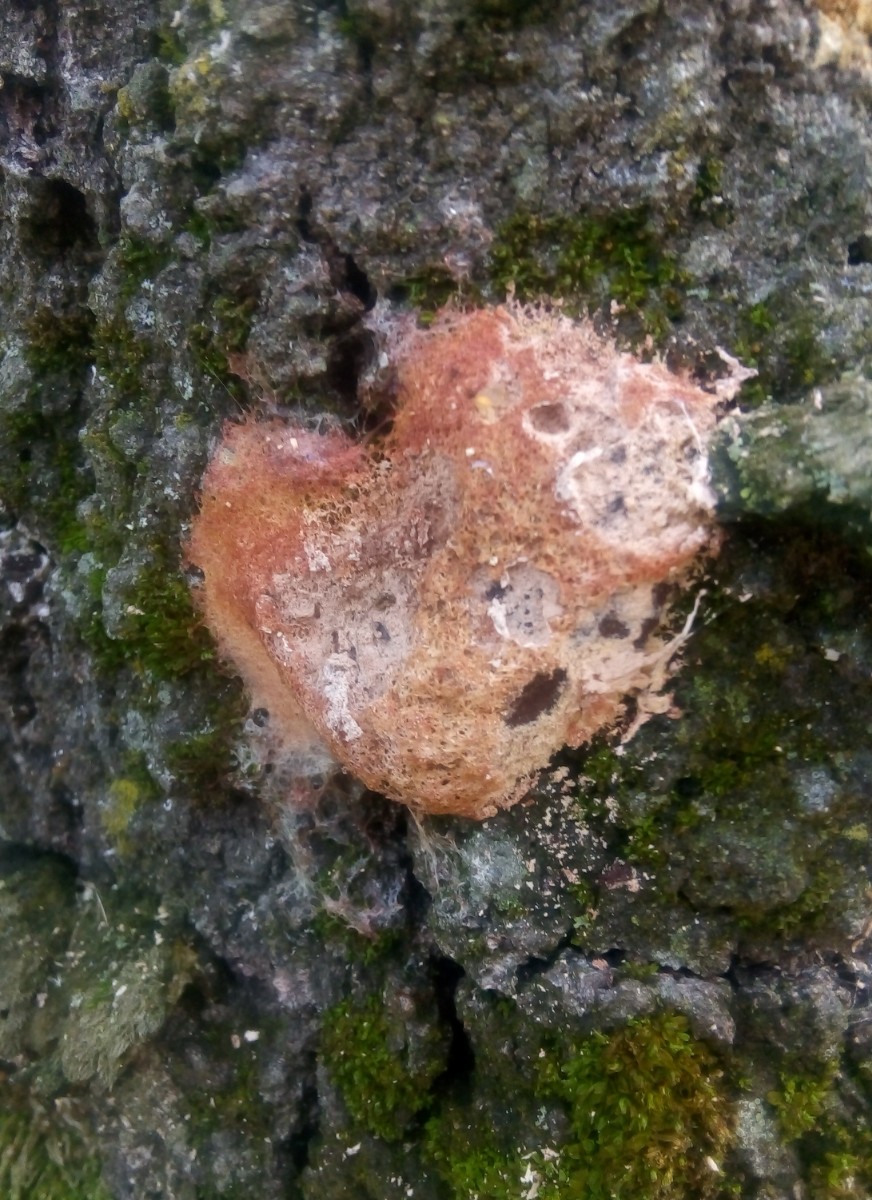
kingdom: Protozoa
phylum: Mycetozoa
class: Myxomycetes
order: Physarales
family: Physaraceae
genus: Fuligo
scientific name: Fuligo septica
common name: Dog vomit slime mold
